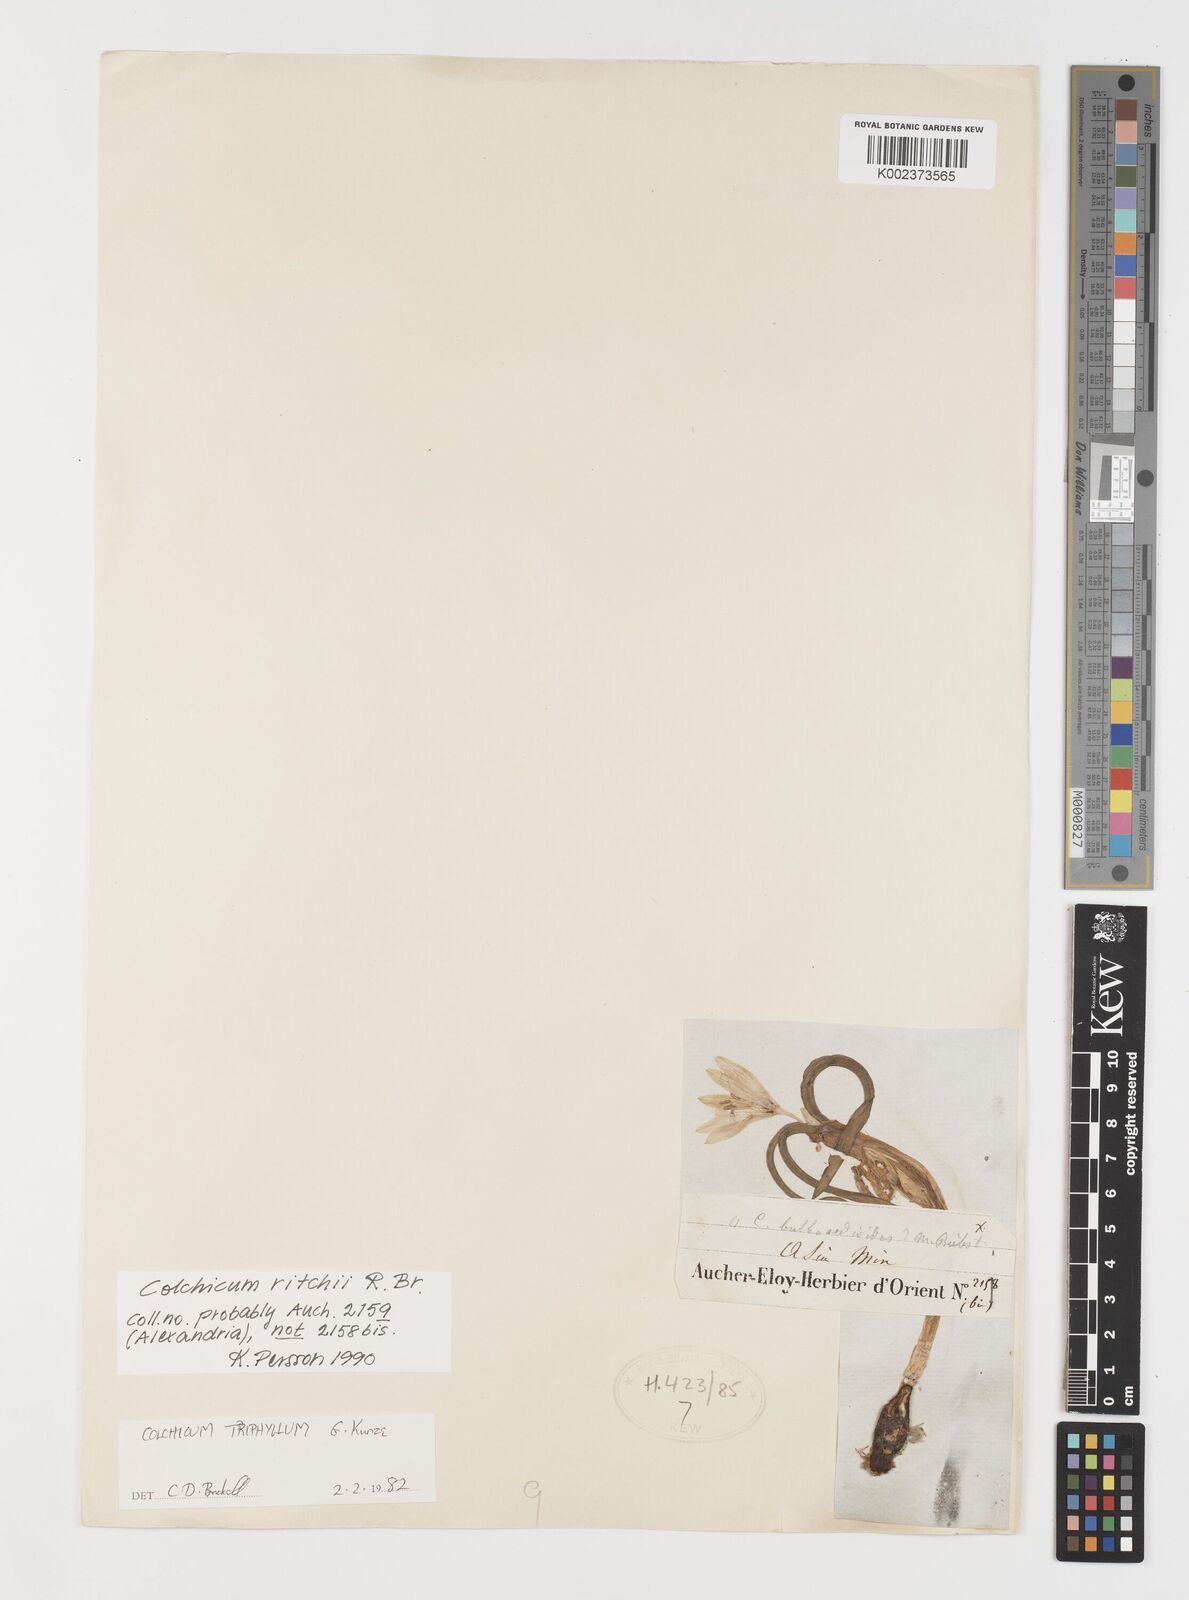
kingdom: Plantae
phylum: Tracheophyta
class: Liliopsida
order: Liliales
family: Colchicaceae
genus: Colchicum
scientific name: Colchicum ritchii
